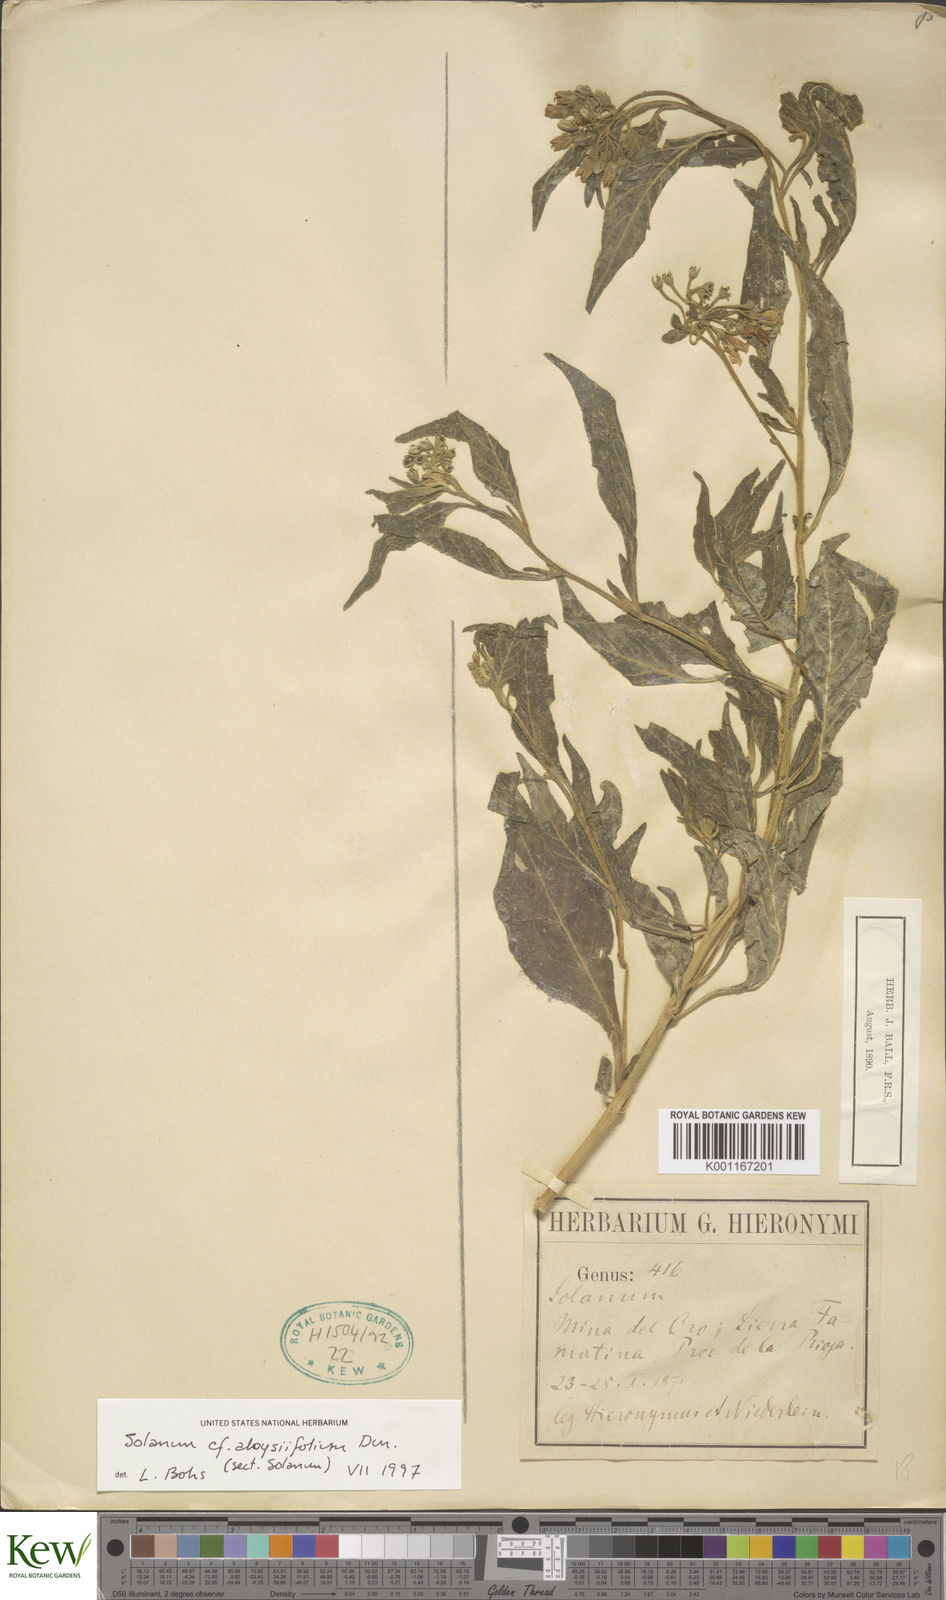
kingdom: Plantae
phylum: Tracheophyta
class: Magnoliopsida
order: Solanales
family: Solanaceae
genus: Solanum
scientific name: Solanum aloysiifolium
